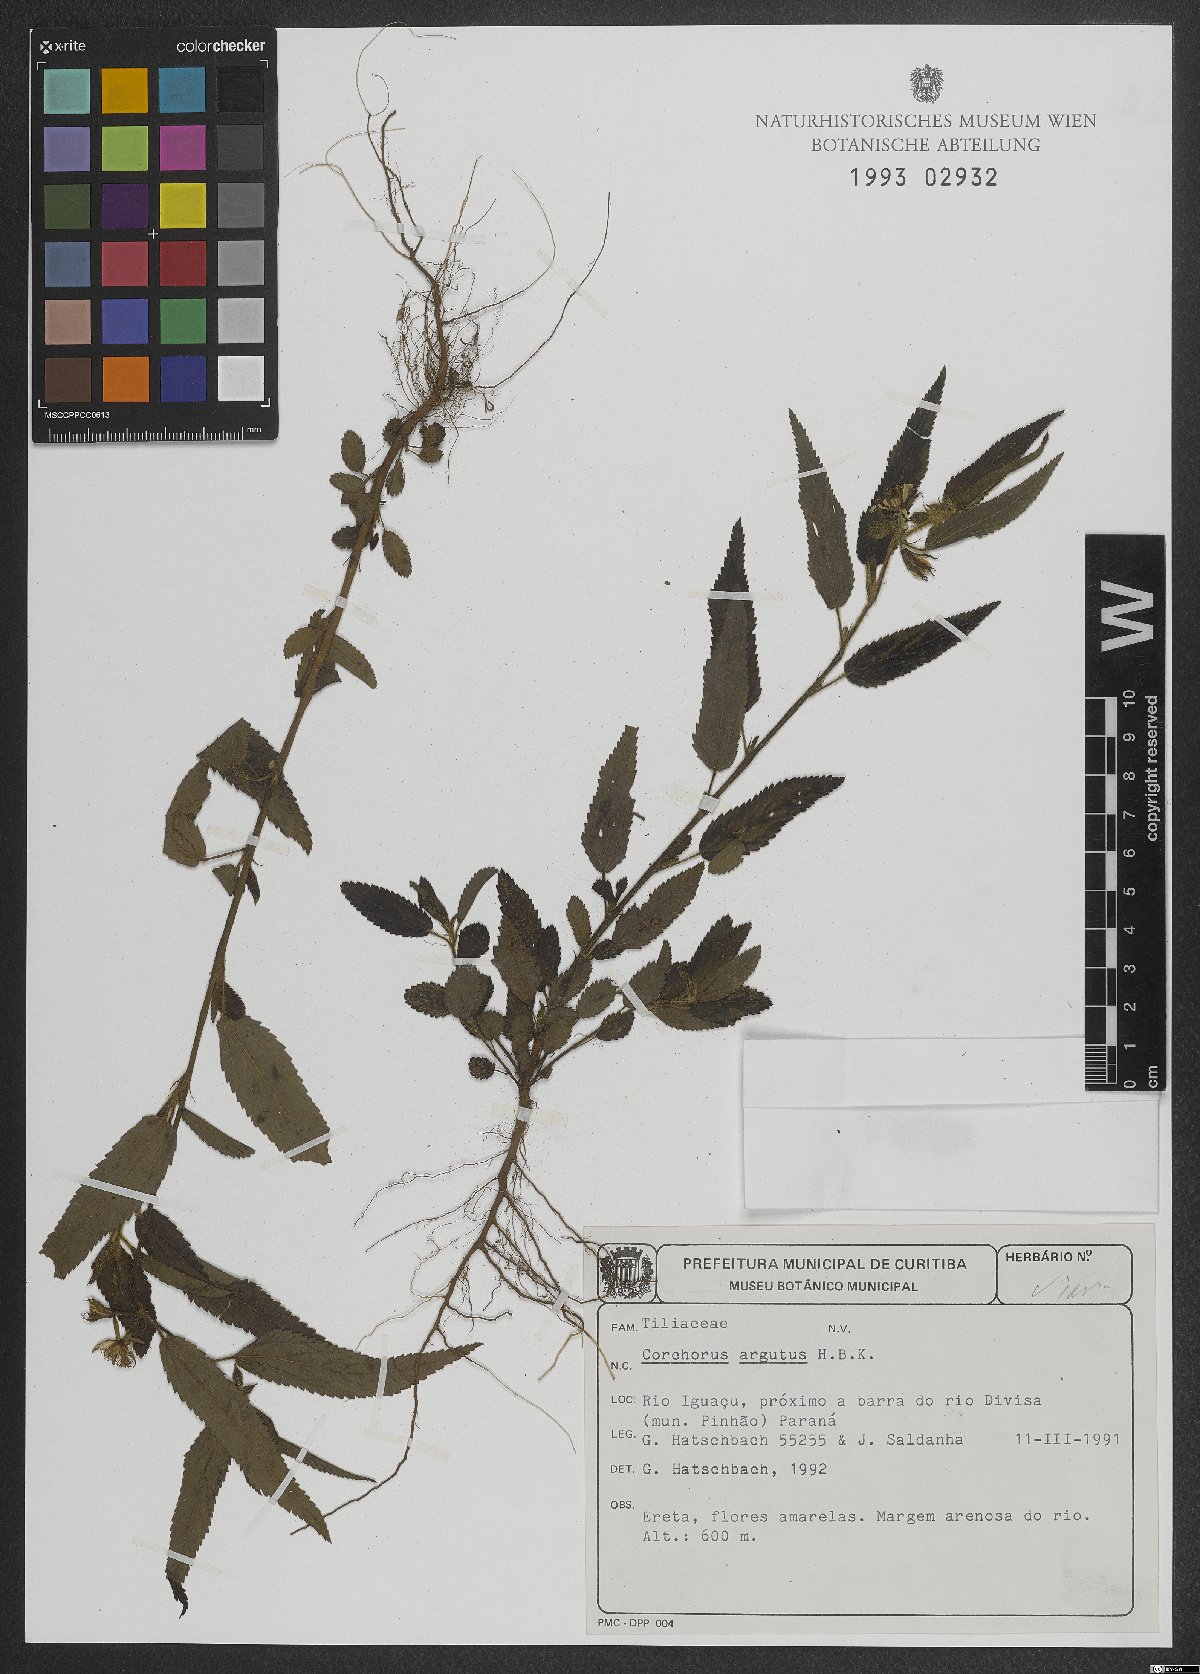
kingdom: Plantae
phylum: Tracheophyta
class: Magnoliopsida
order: Malvales
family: Malvaceae
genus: Corchorus
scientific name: Corchorus argutus
